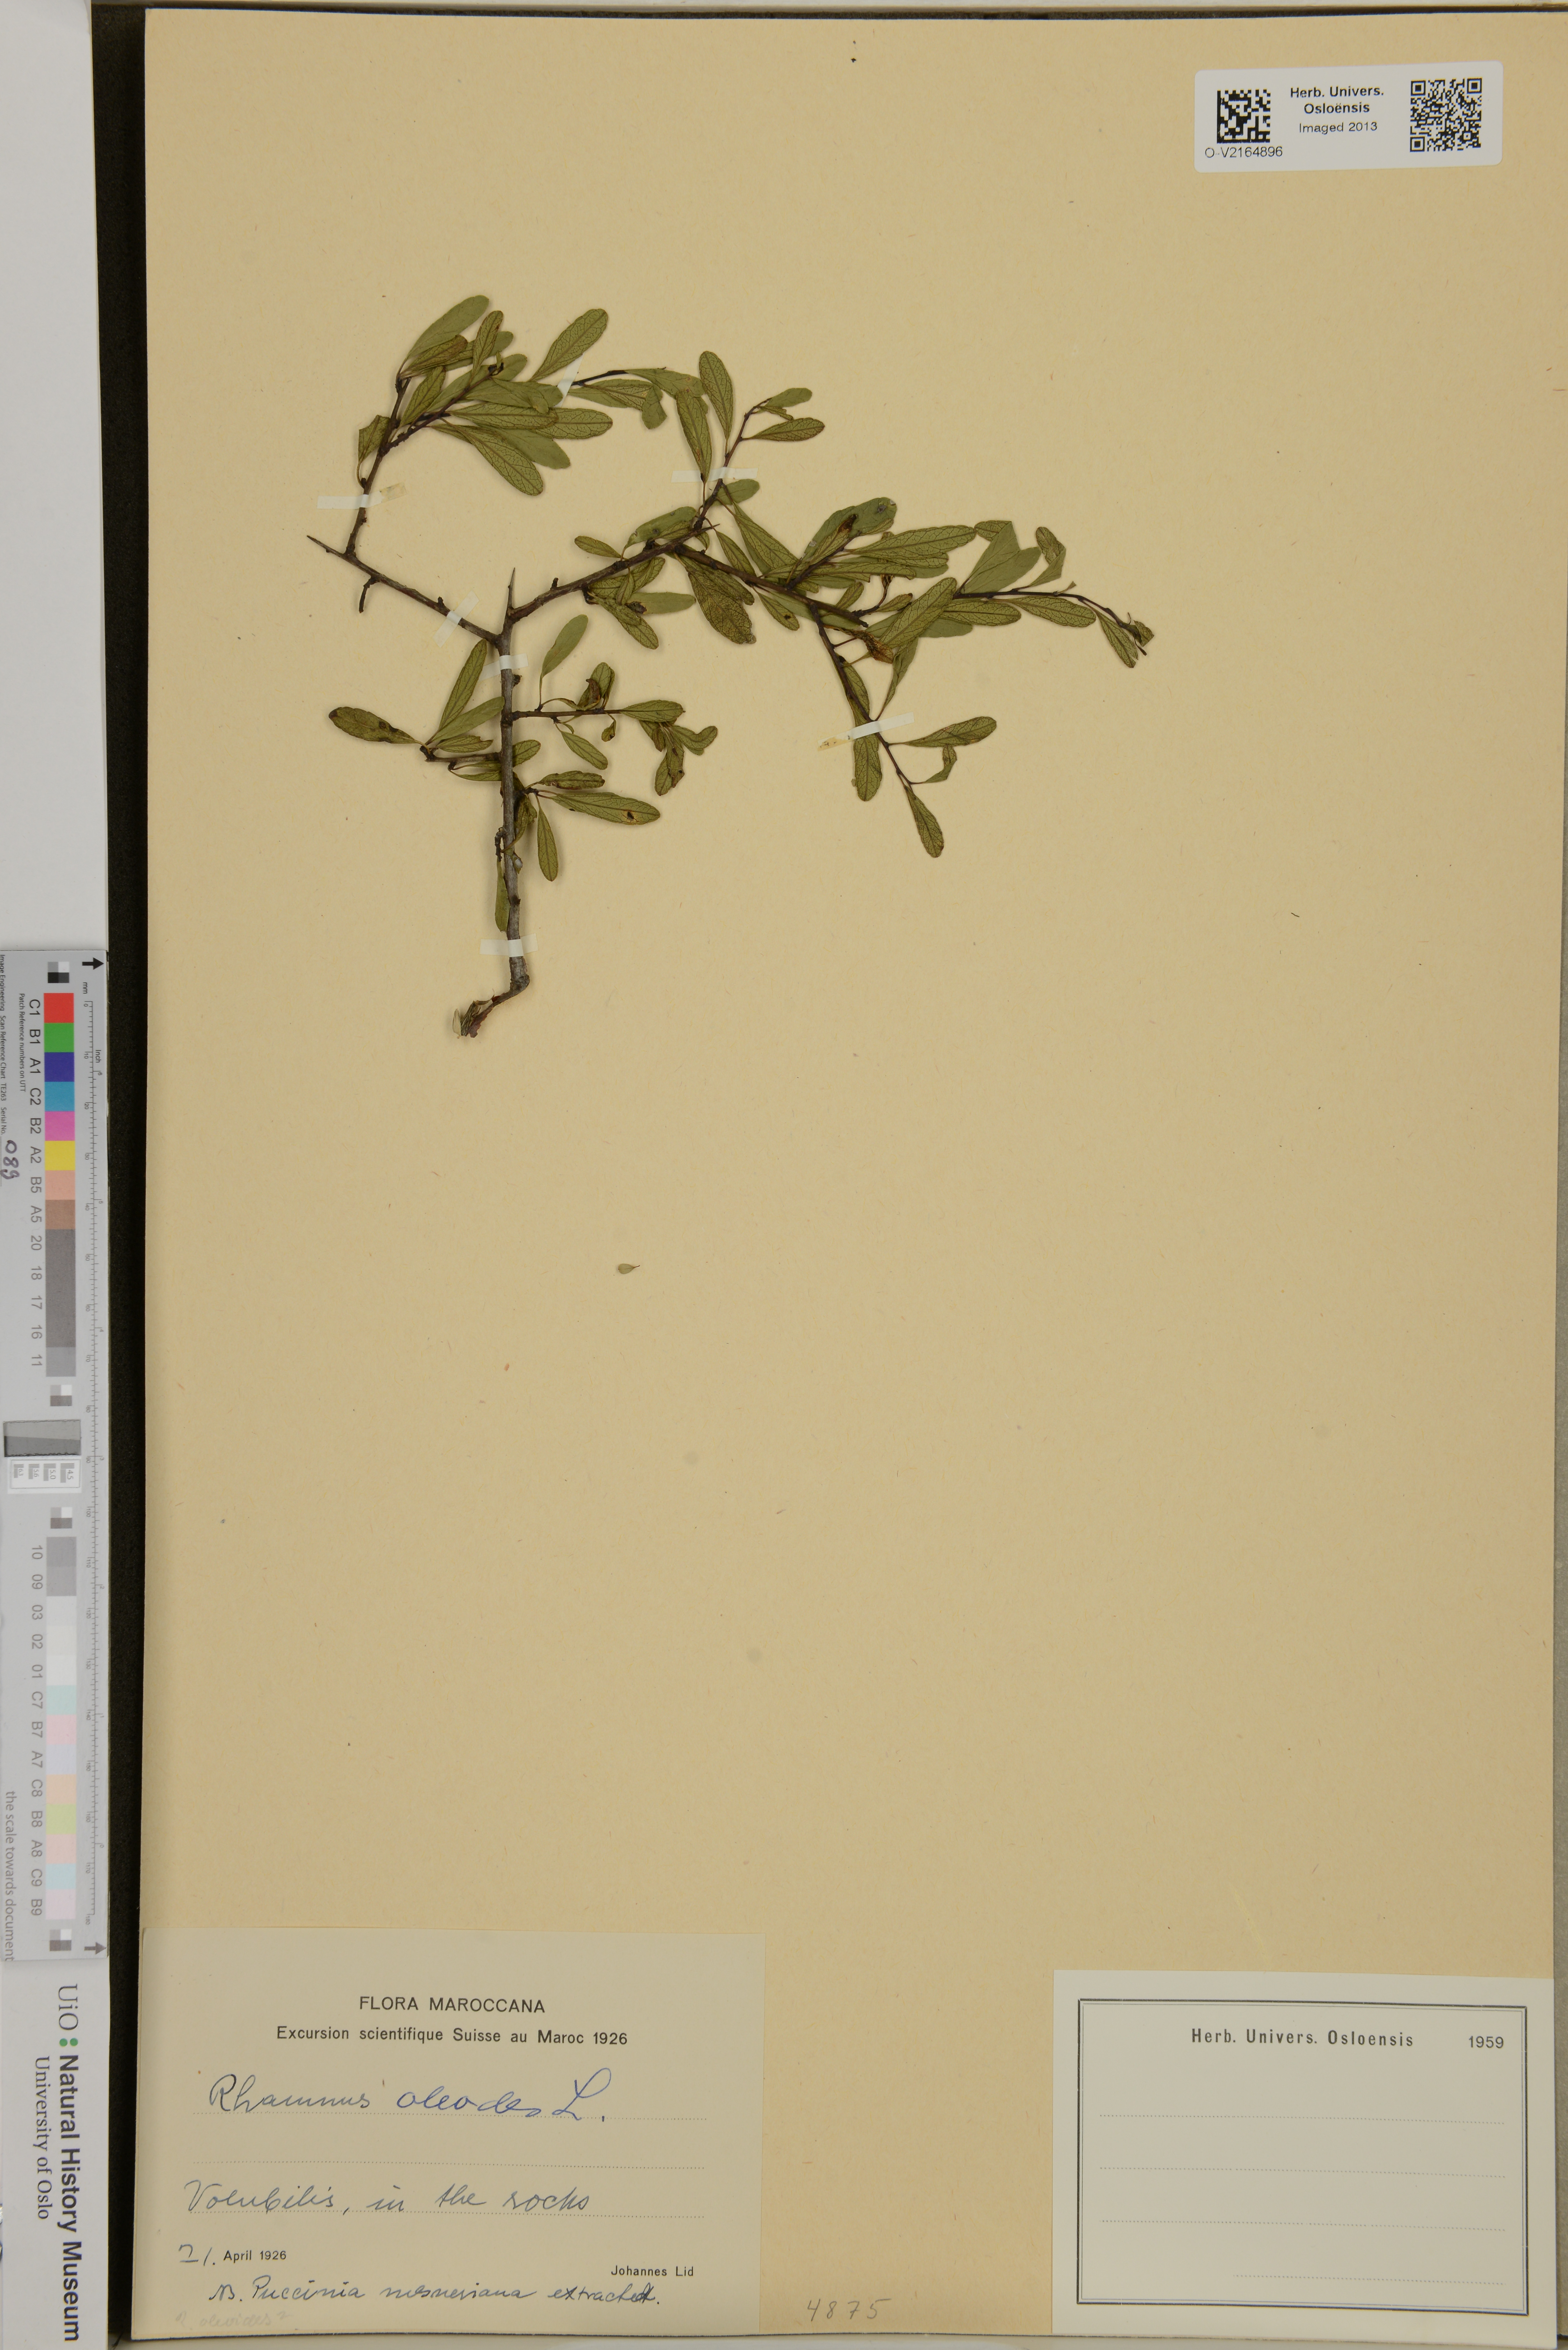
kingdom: Plantae
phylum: Tracheophyta
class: Magnoliopsida
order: Rosales
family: Rhamnaceae
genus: Rhamnus
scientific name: Rhamnus oleoides
